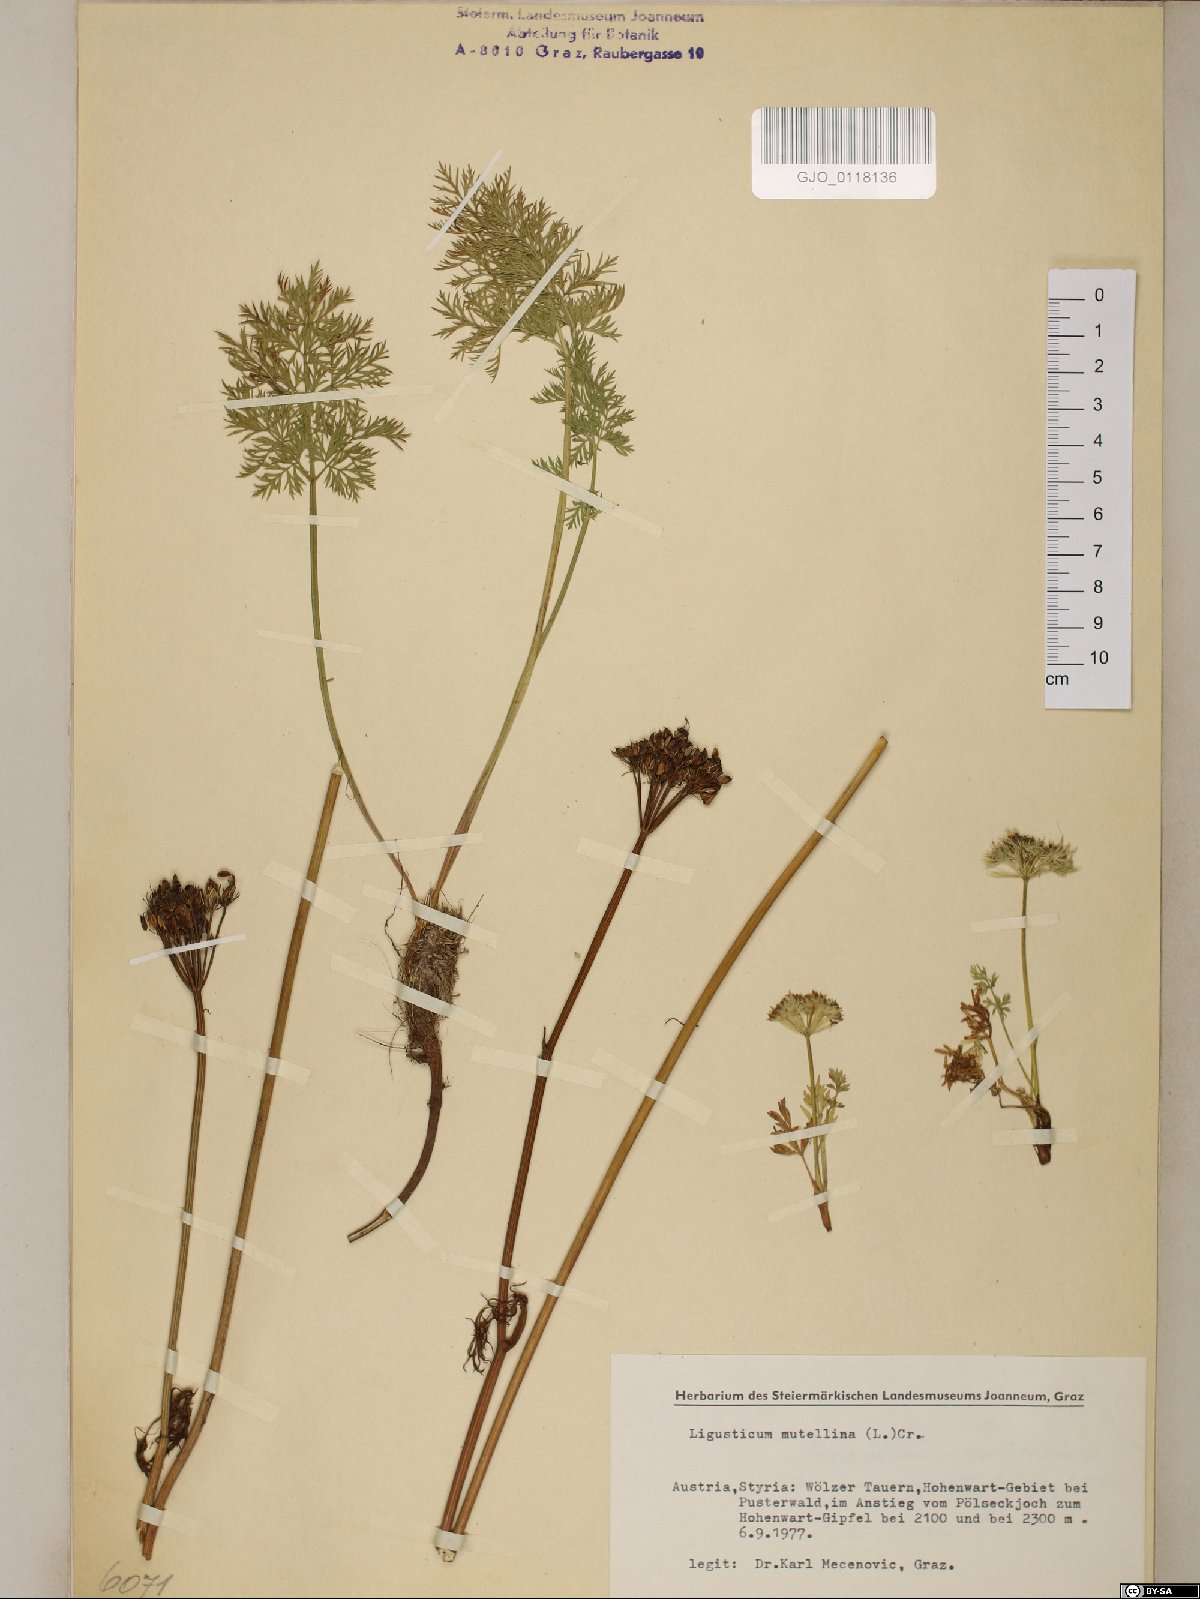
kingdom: Plantae
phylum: Tracheophyta
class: Magnoliopsida
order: Apiales
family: Apiaceae
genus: Mutellina
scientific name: Mutellina adonidifolia
